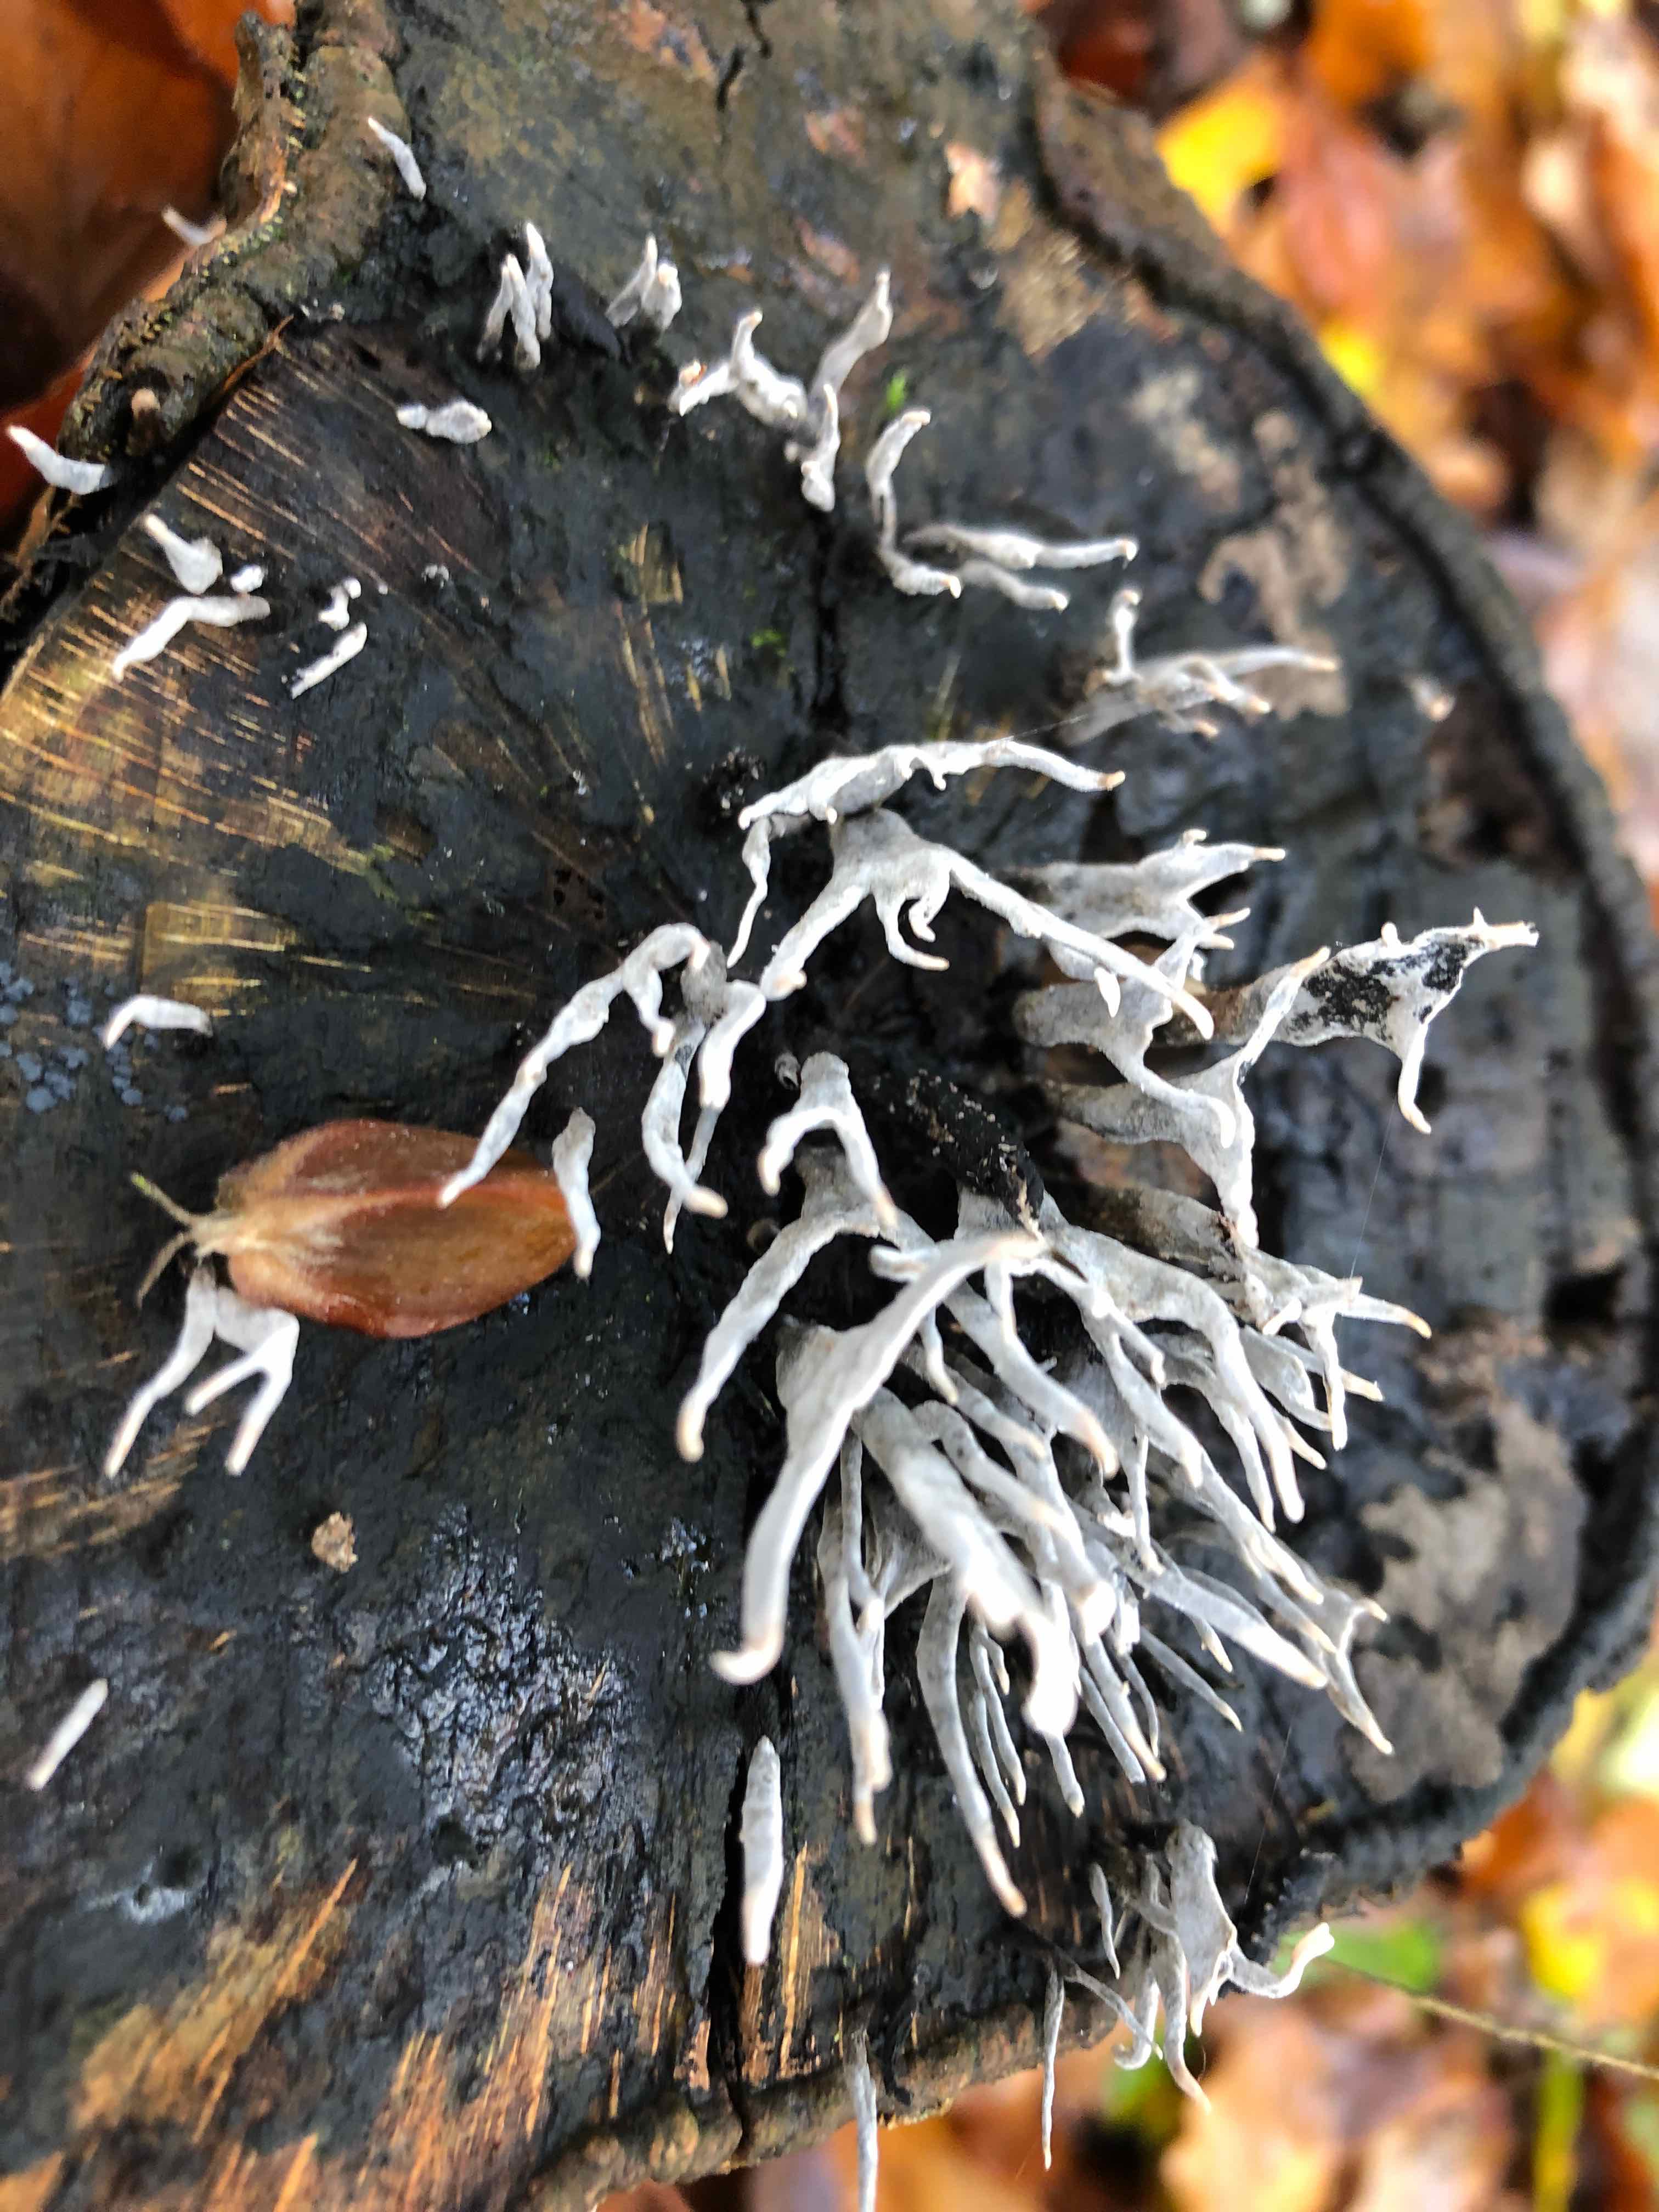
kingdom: Fungi
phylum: Ascomycota
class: Sordariomycetes
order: Xylariales
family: Xylariaceae
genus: Xylaria
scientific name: Xylaria hypoxylon
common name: grenet stødsvamp
